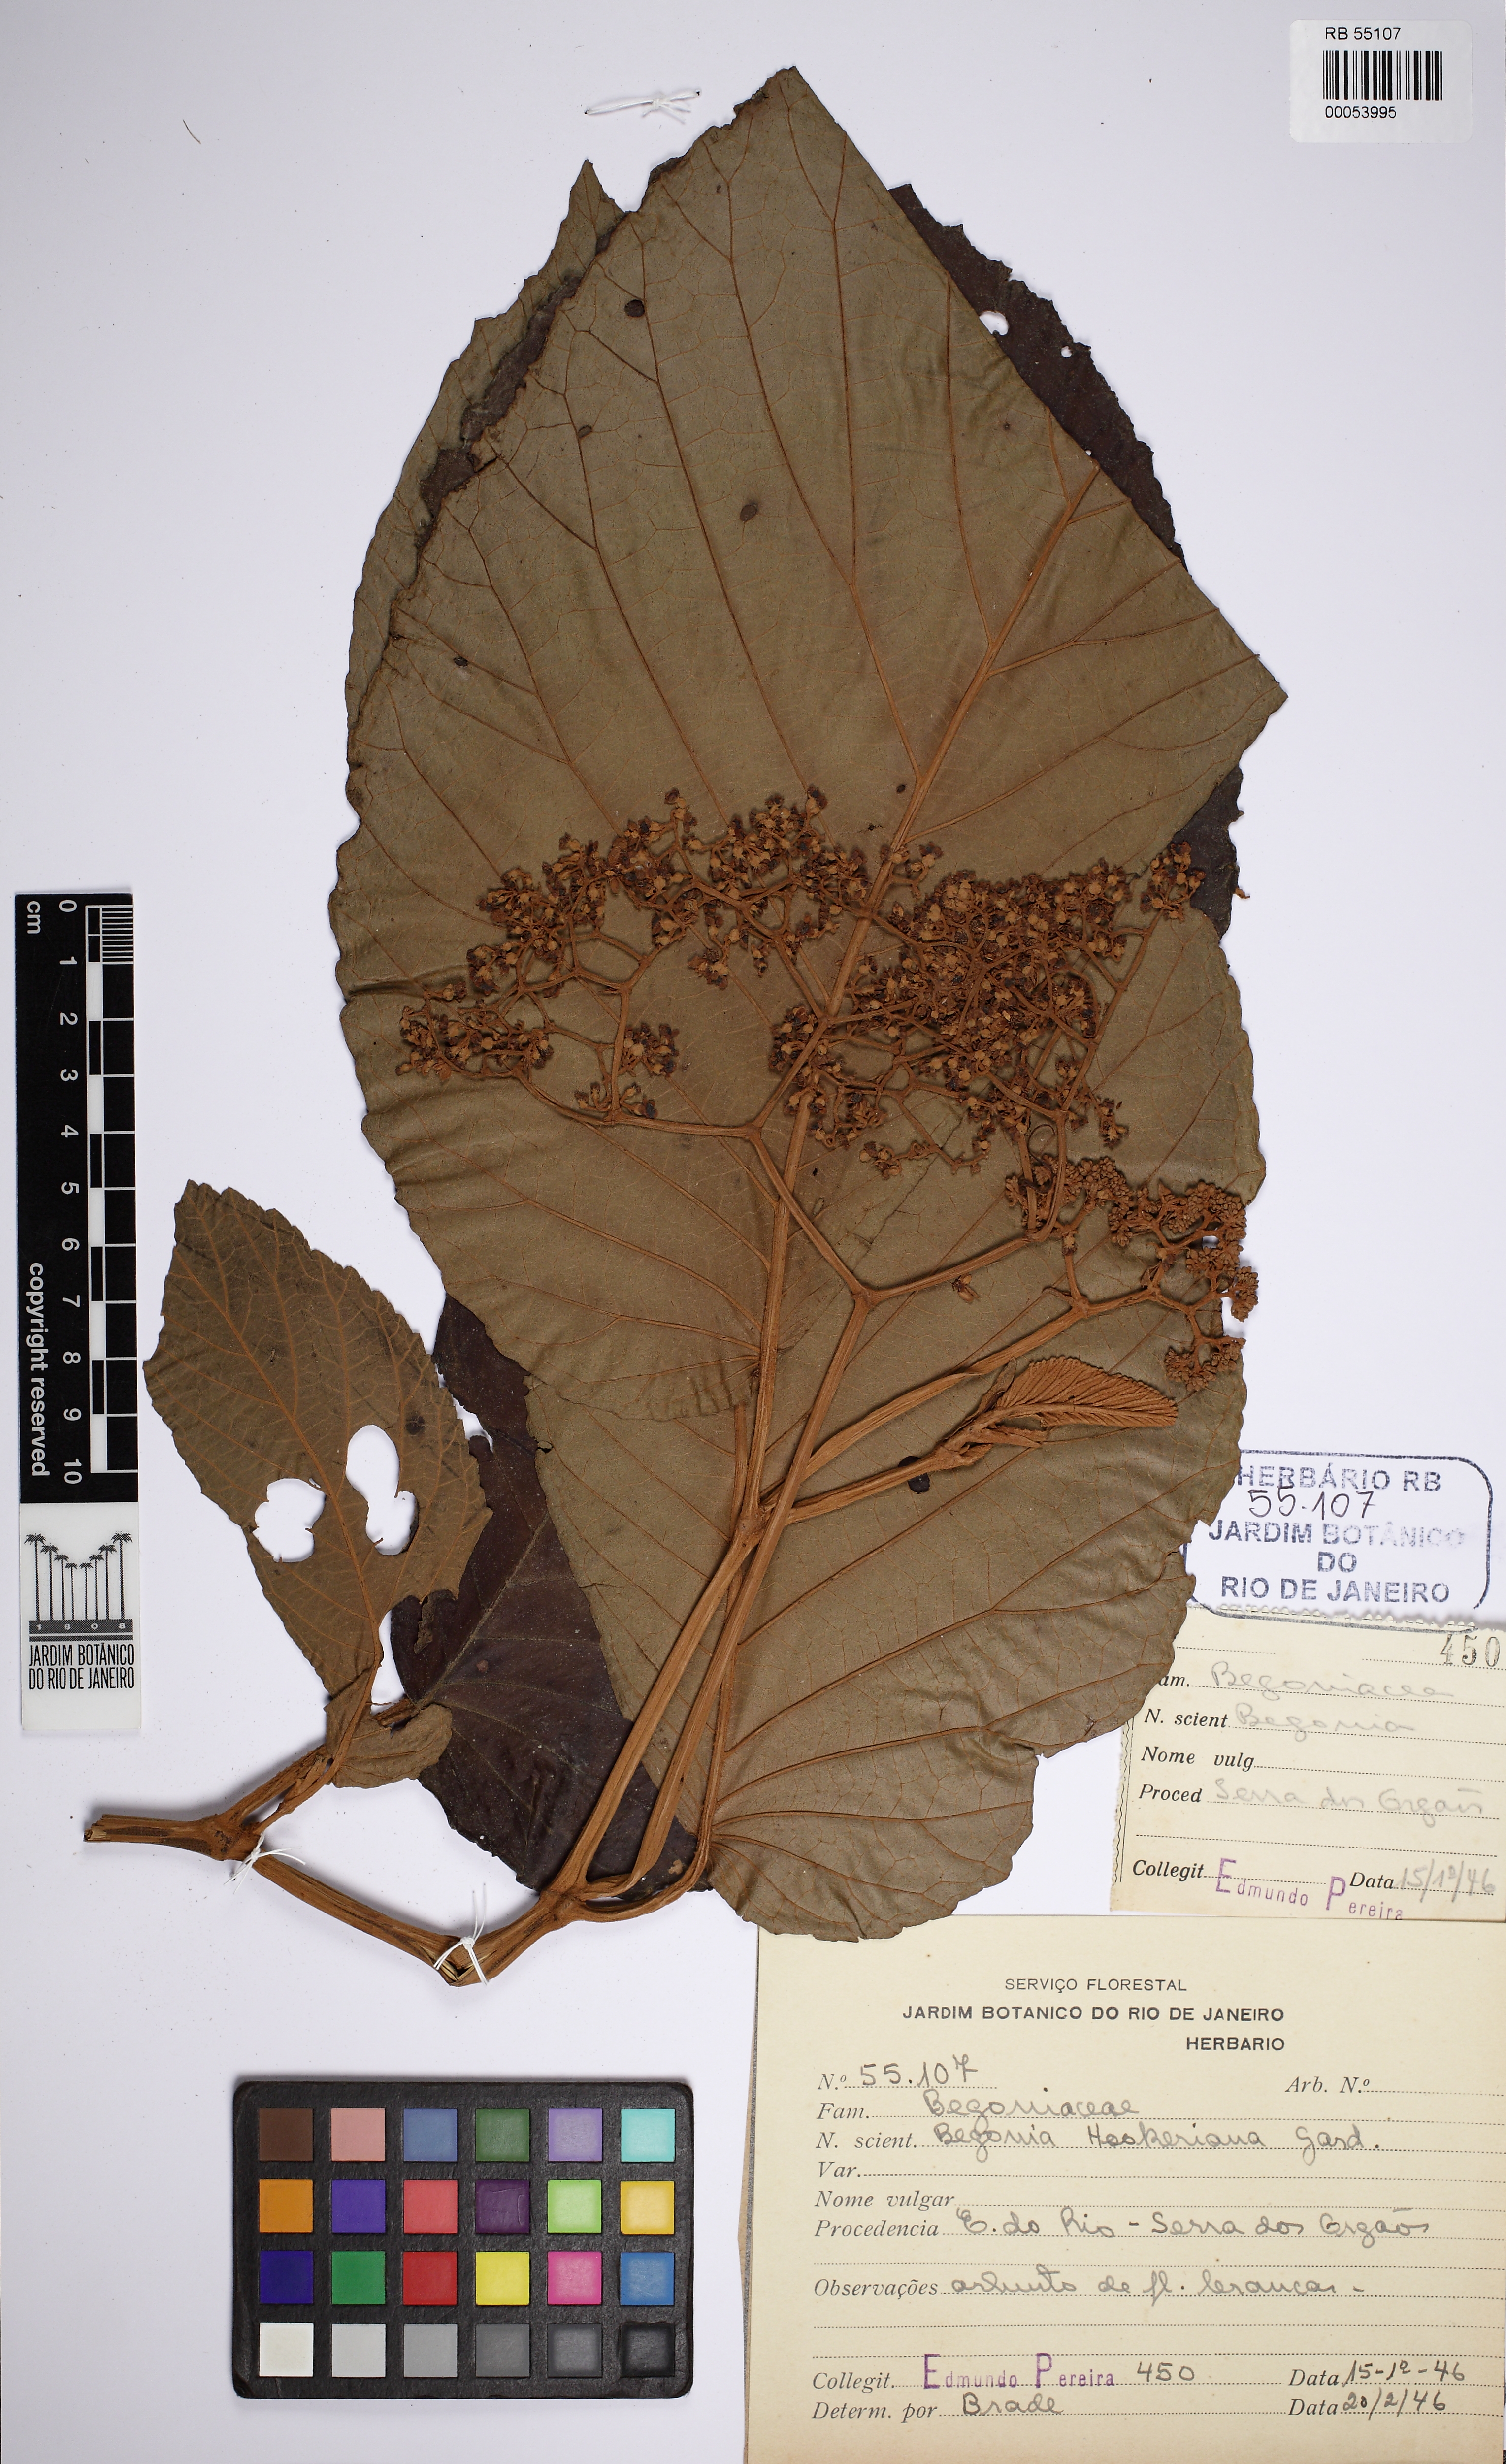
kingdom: Plantae
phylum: Tracheophyta
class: Magnoliopsida
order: Cucurbitales
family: Begoniaceae
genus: Begonia
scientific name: Begonia hookeriana
